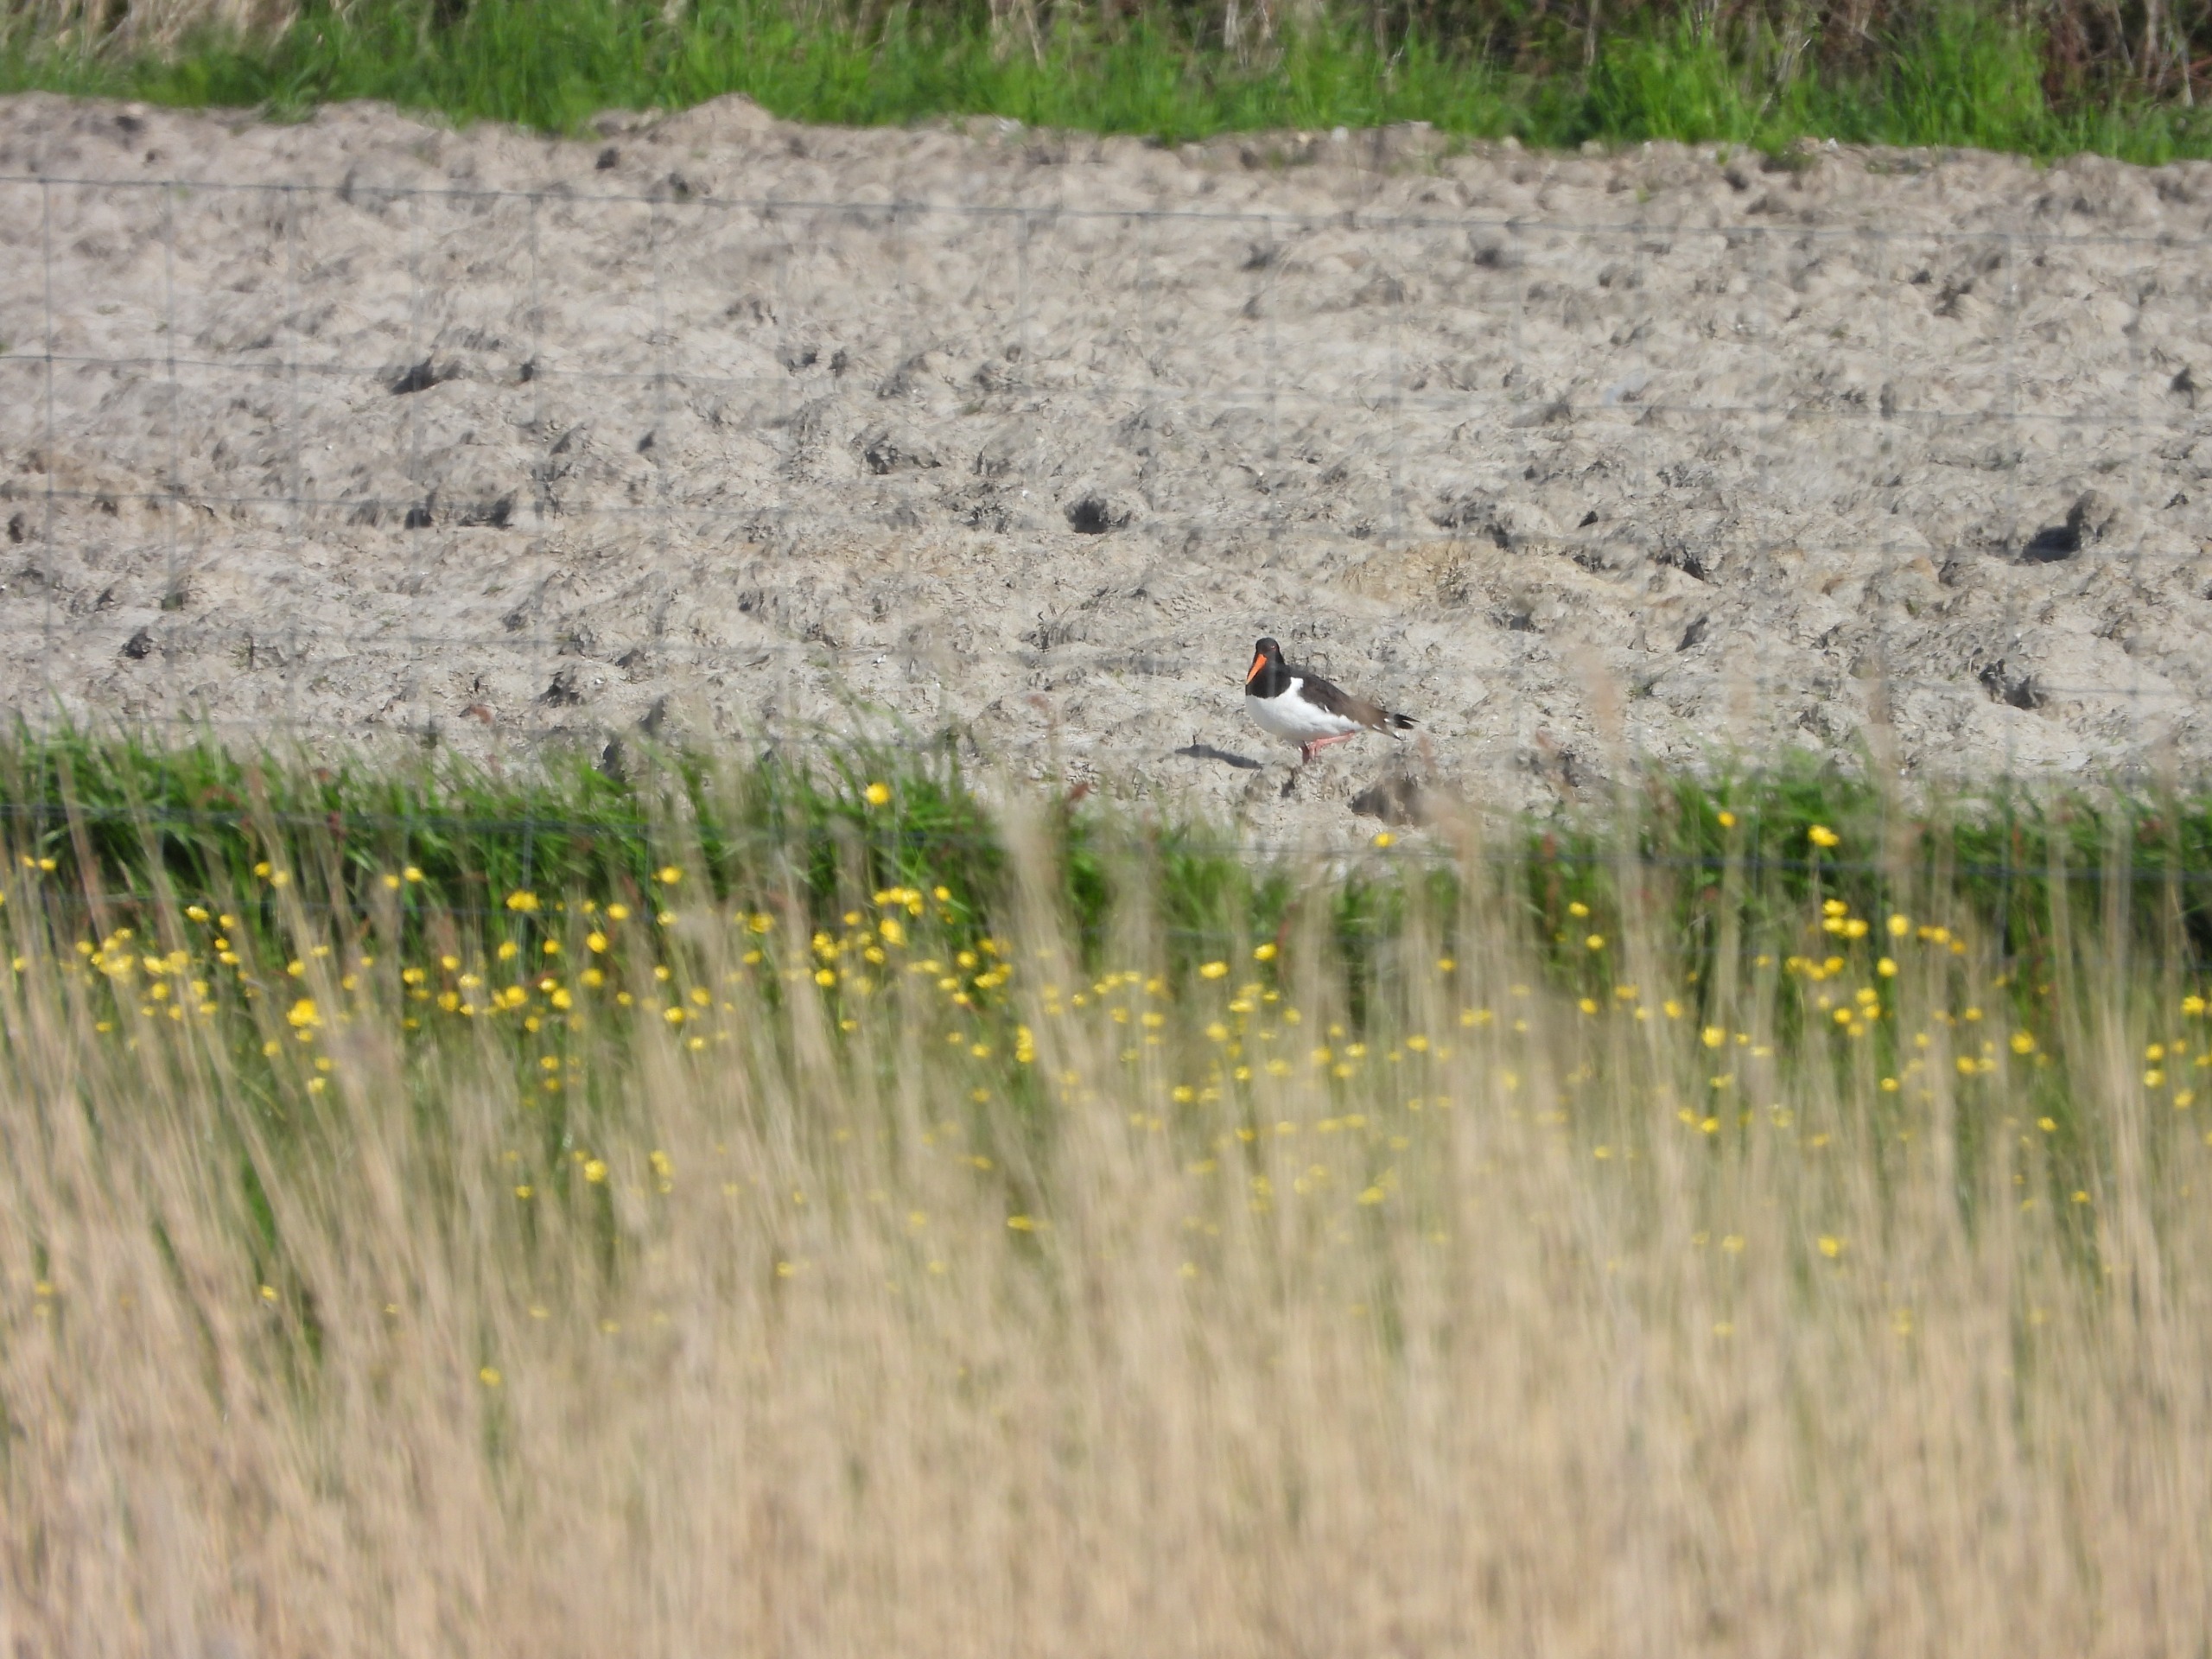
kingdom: Animalia
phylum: Chordata
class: Aves
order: Charadriiformes
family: Haematopodidae
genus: Haematopus
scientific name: Haematopus ostralegus
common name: Strandskade
